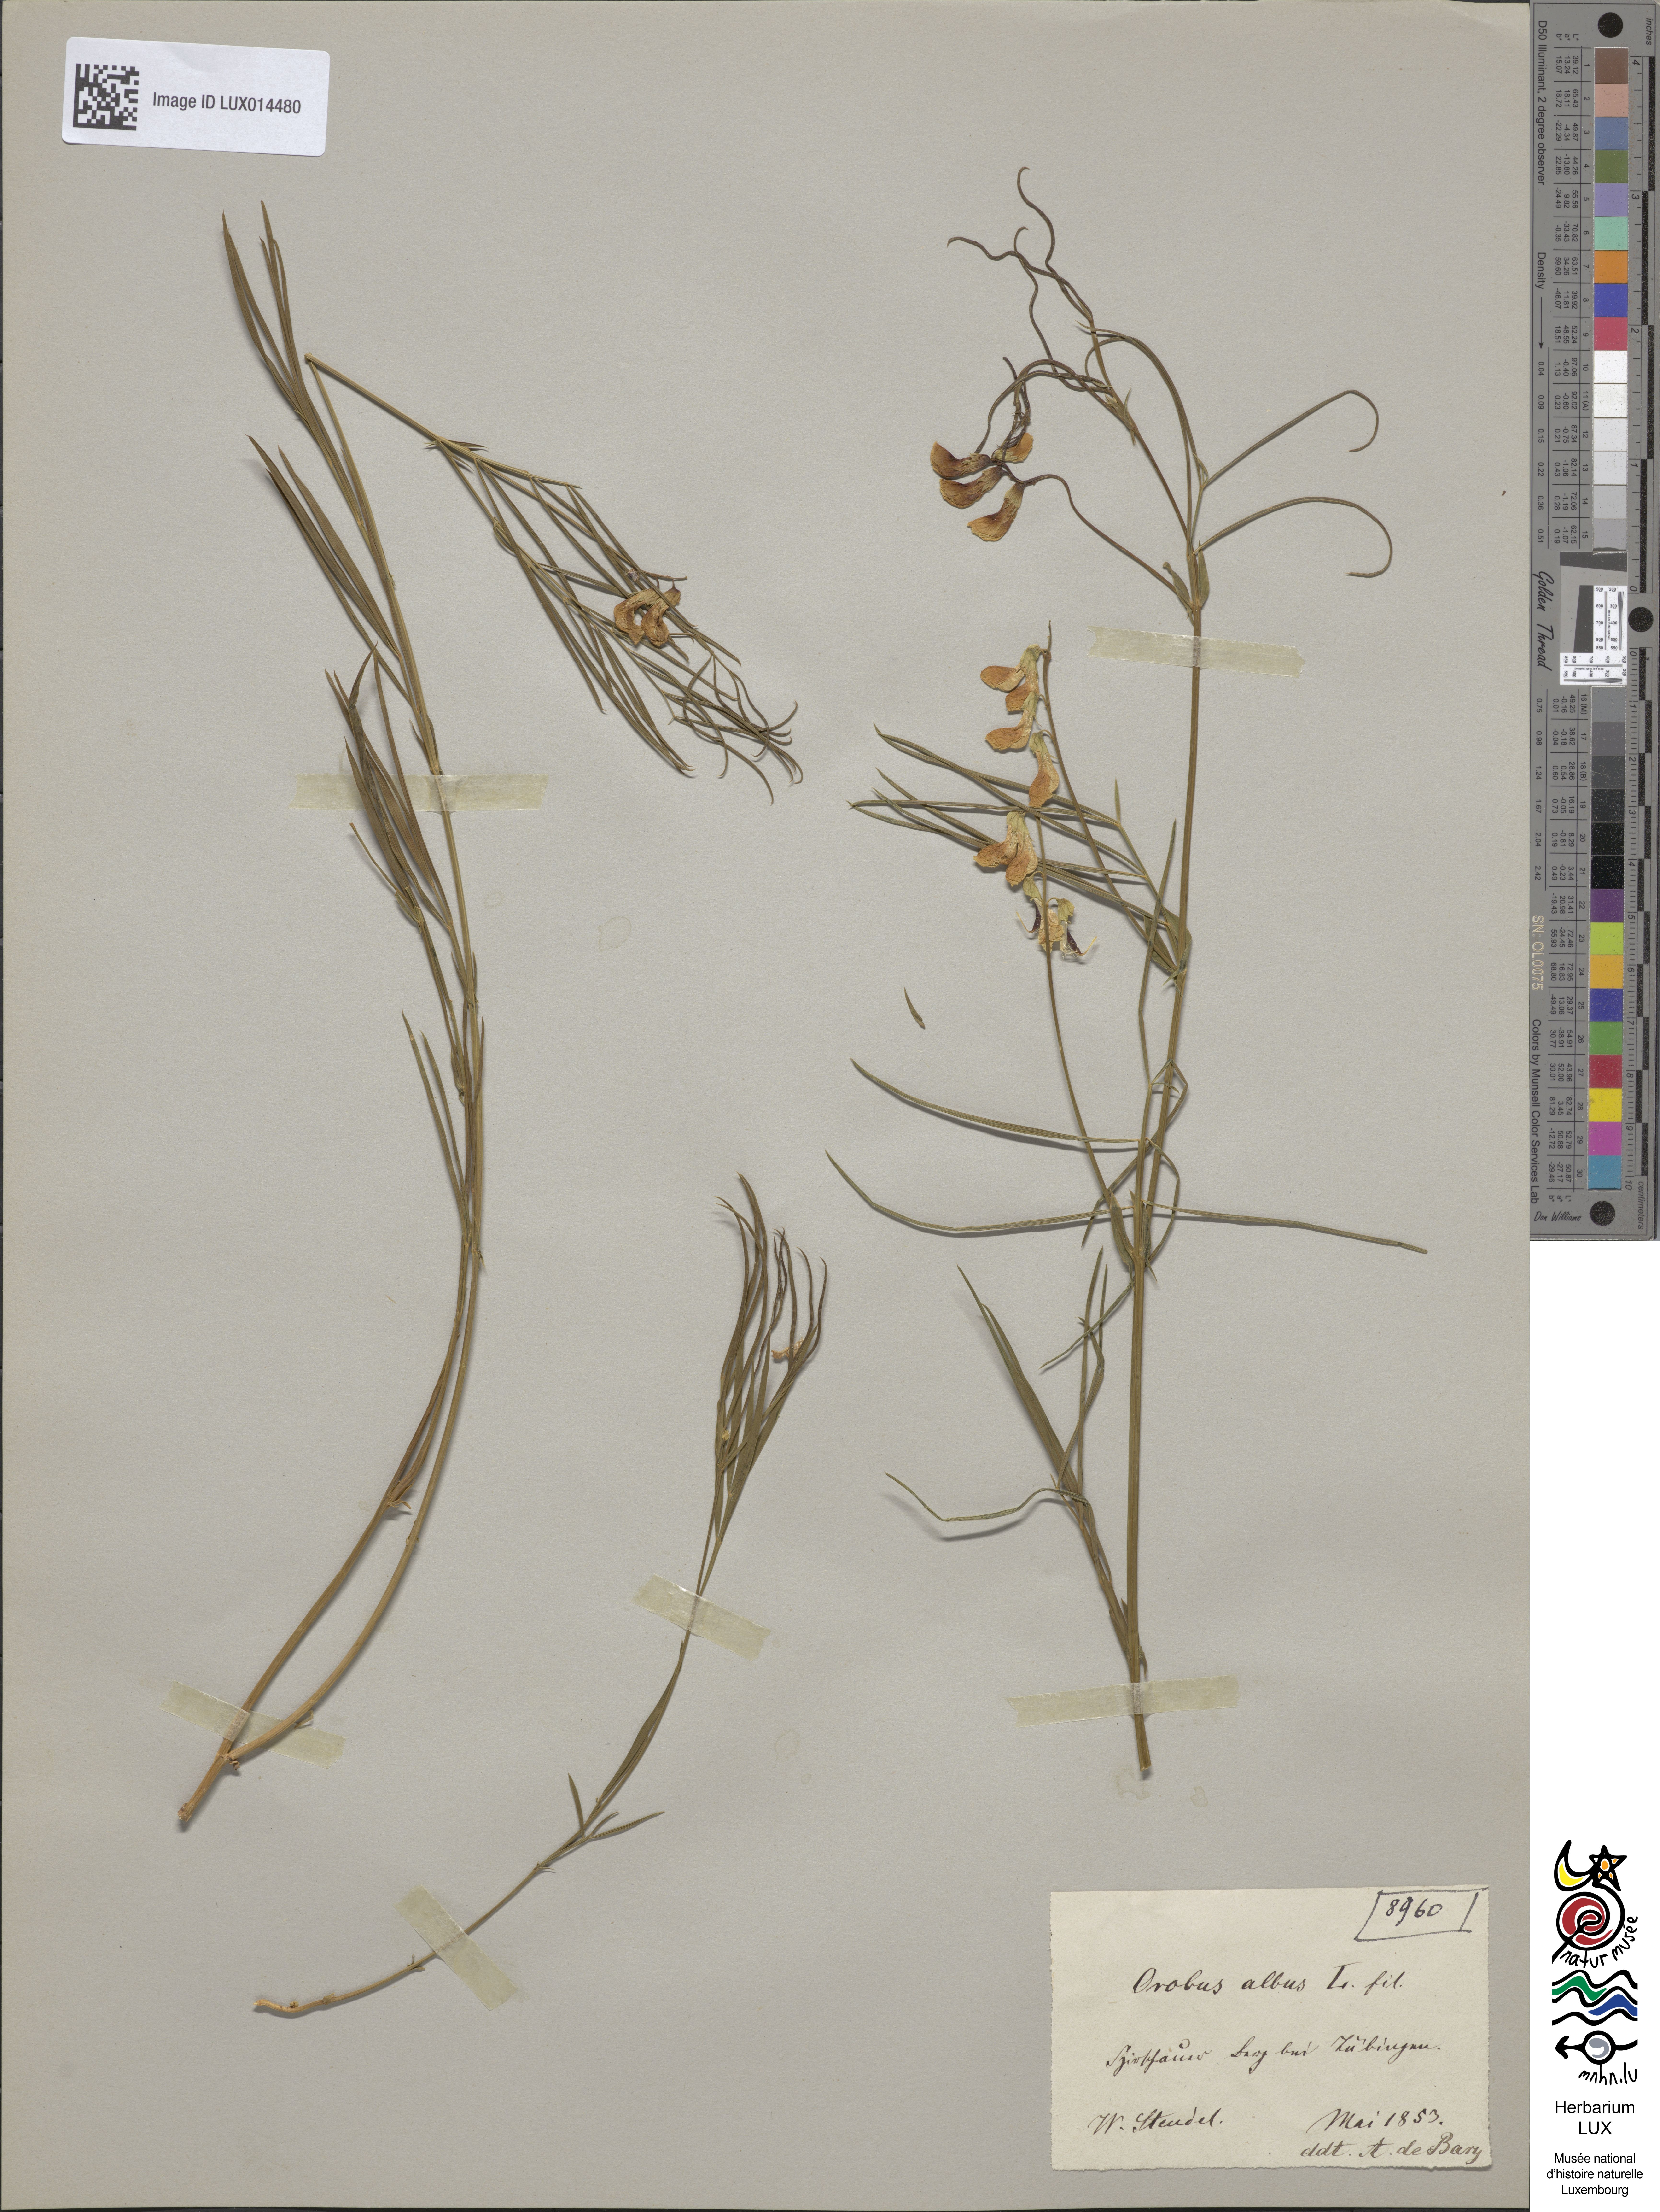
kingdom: Plantae
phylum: Tracheophyta
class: Magnoliopsida
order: Fabales
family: Fabaceae
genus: Lathyrus
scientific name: Lathyrus pannonicus
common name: Pea
